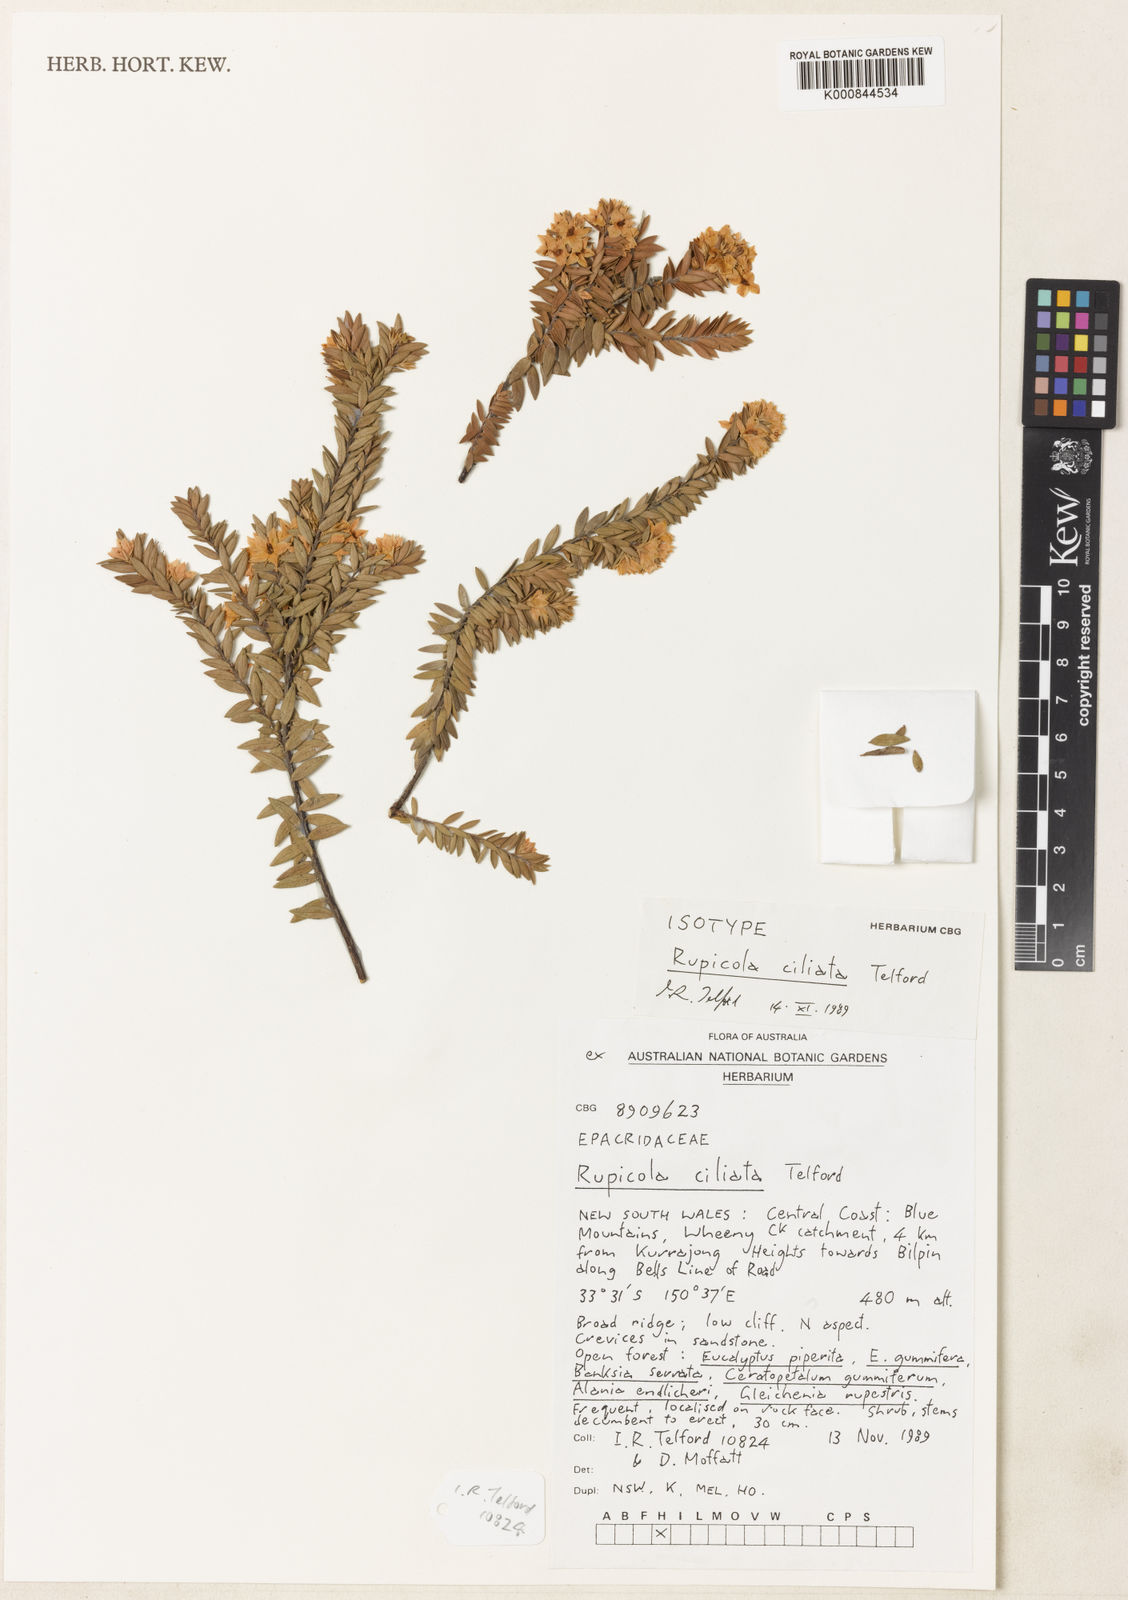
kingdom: Plantae
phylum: Tracheophyta
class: Magnoliopsida
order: Ericales
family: Ericaceae
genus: Epacris
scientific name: Epacris pilosa
